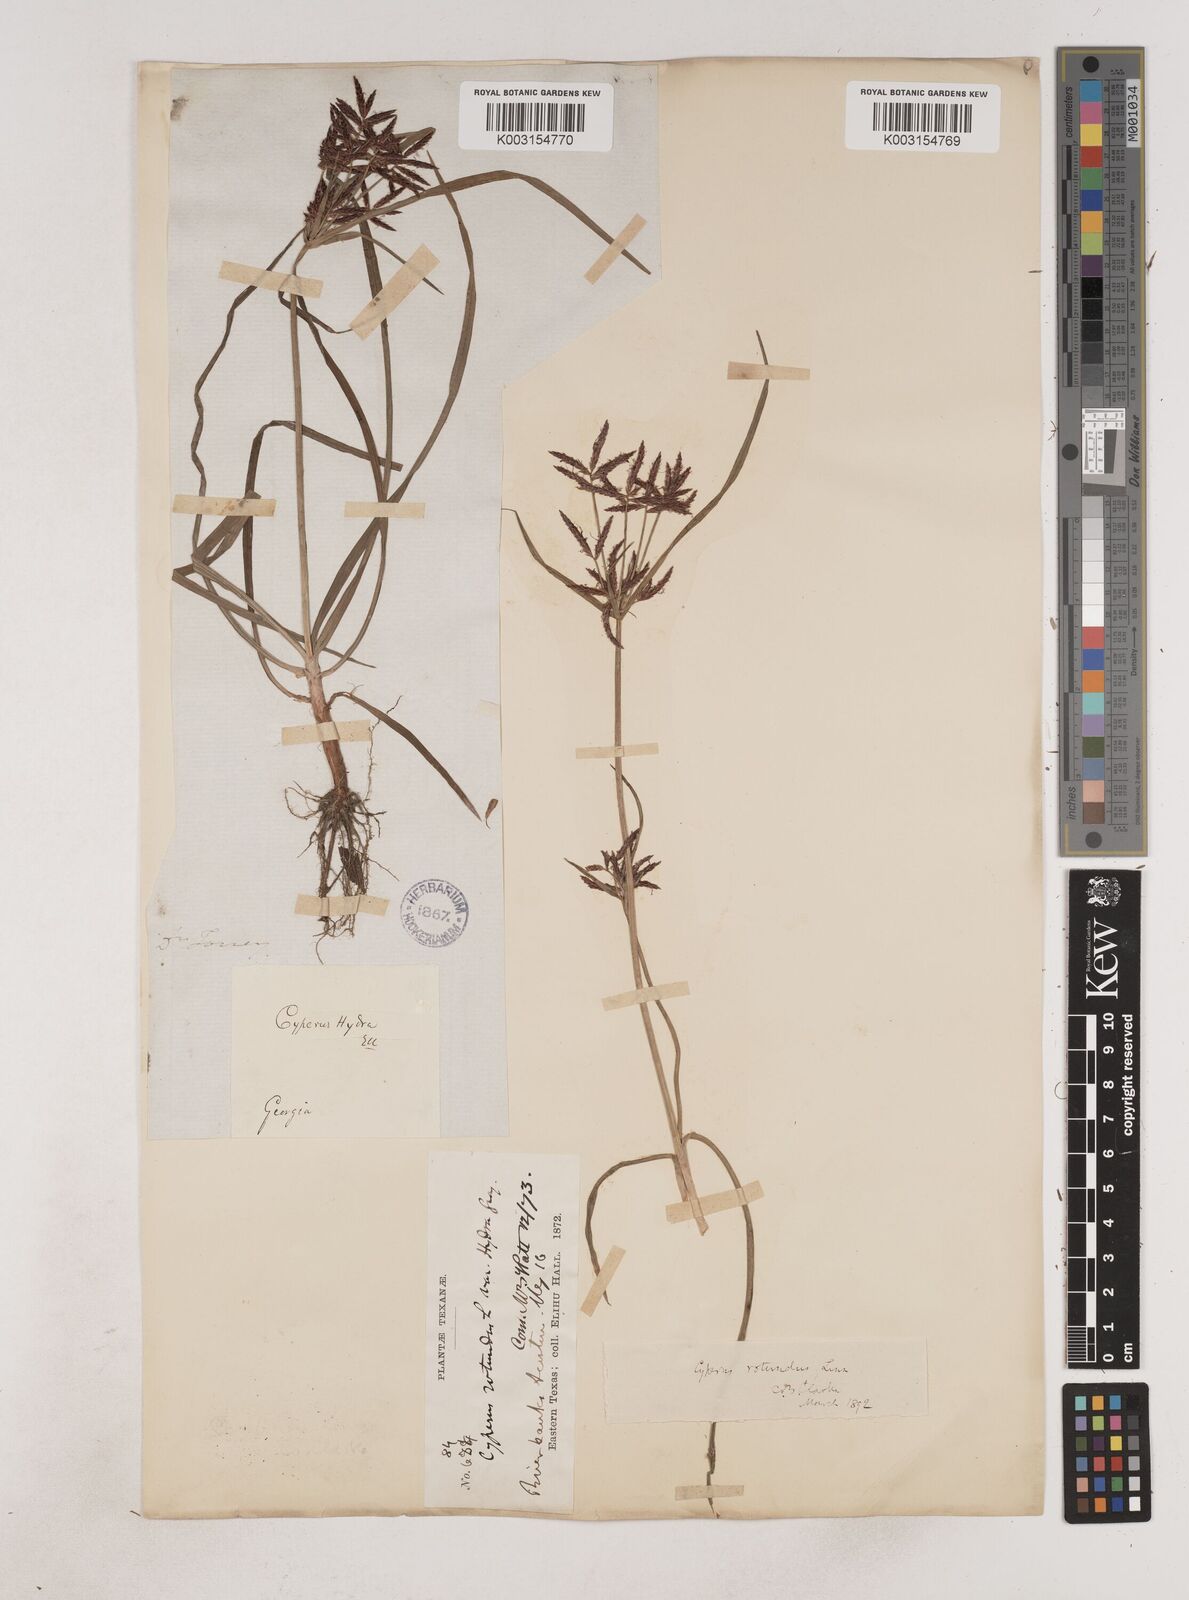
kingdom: Plantae
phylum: Tracheophyta
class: Liliopsida
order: Poales
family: Cyperaceae
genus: Cyperus
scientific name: Cyperus rotundus
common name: Nutgrass
